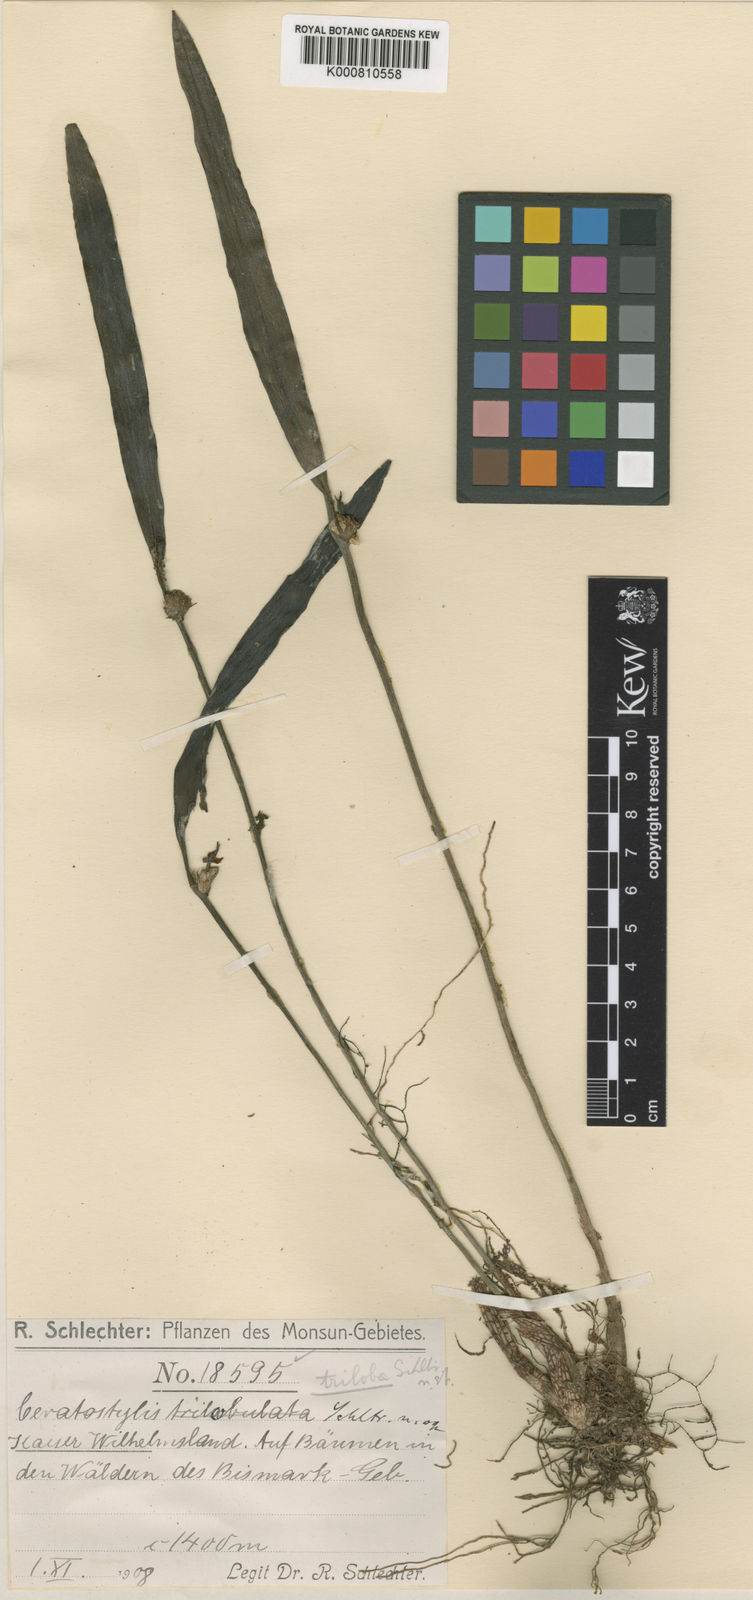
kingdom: Plantae
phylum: Tracheophyta
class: Liliopsida
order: Asparagales
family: Orchidaceae
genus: Ceratostylis
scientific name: Ceratostylis triloba
